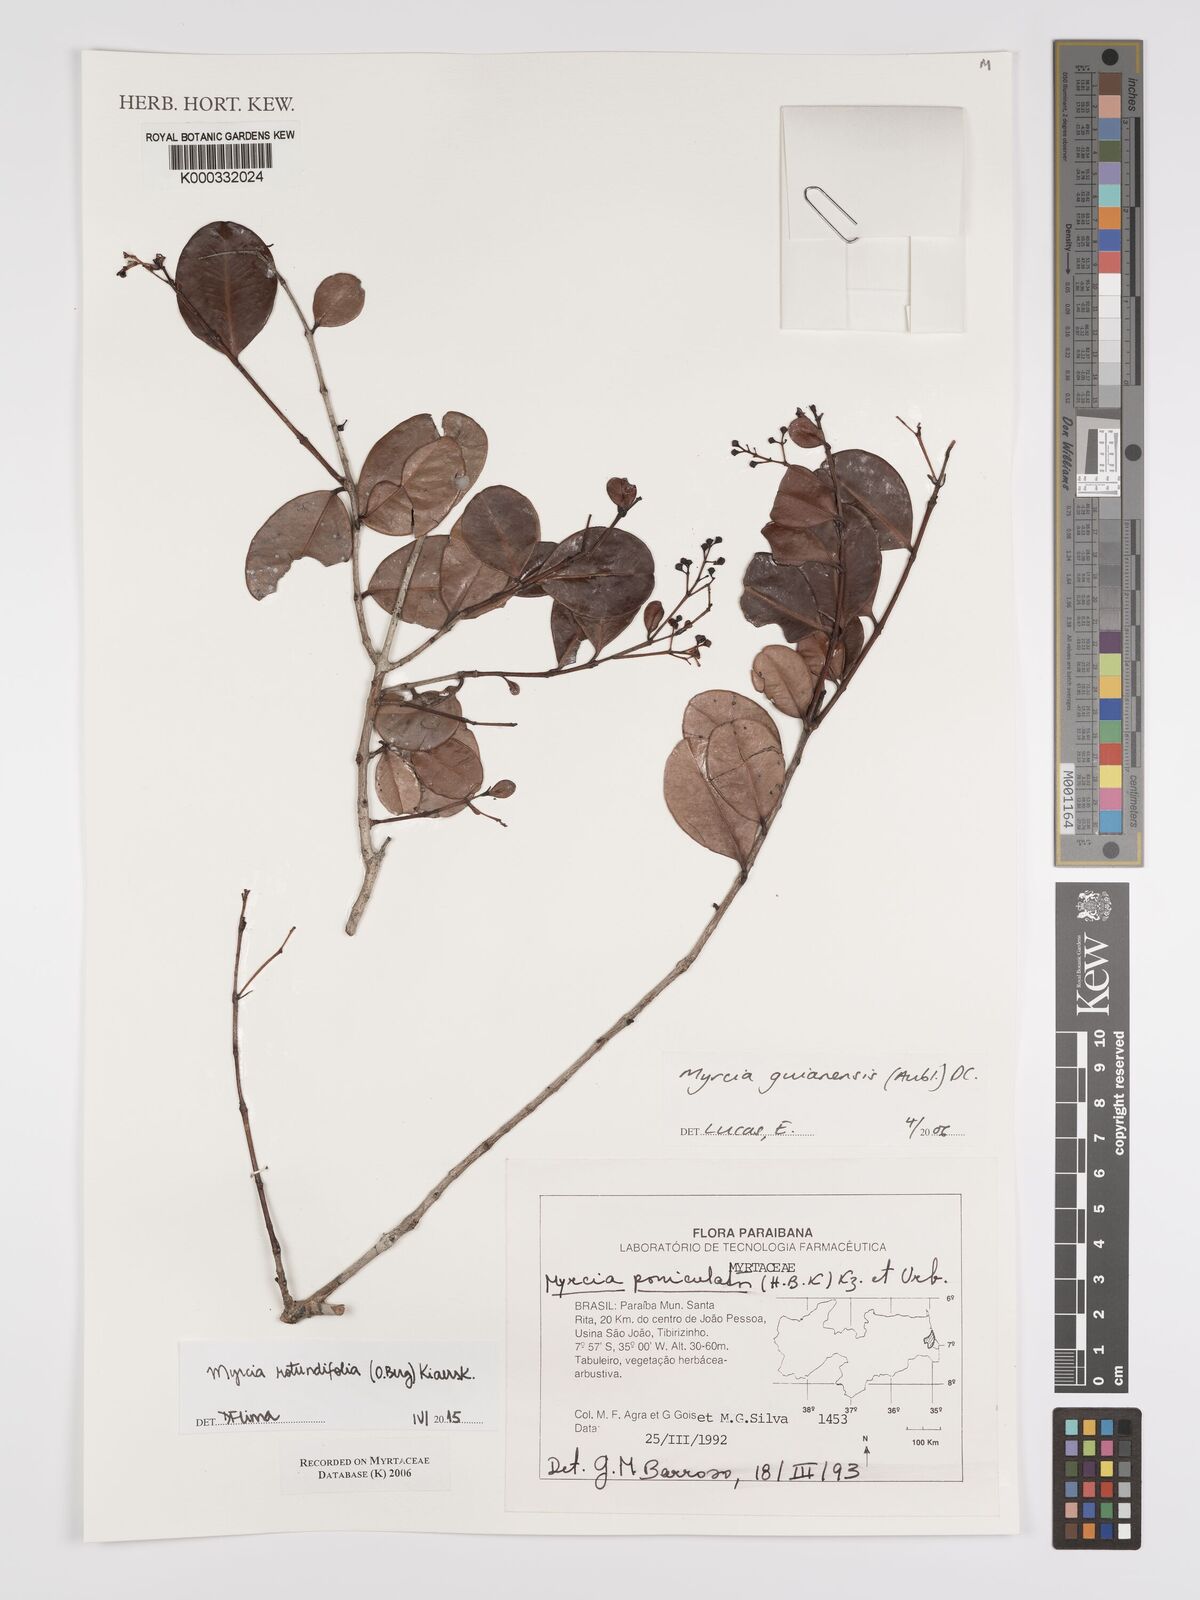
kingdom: Plantae
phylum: Tracheophyta
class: Magnoliopsida
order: Myrtales
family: Myrtaceae
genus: Myrcia
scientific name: Myrcia guianensis
